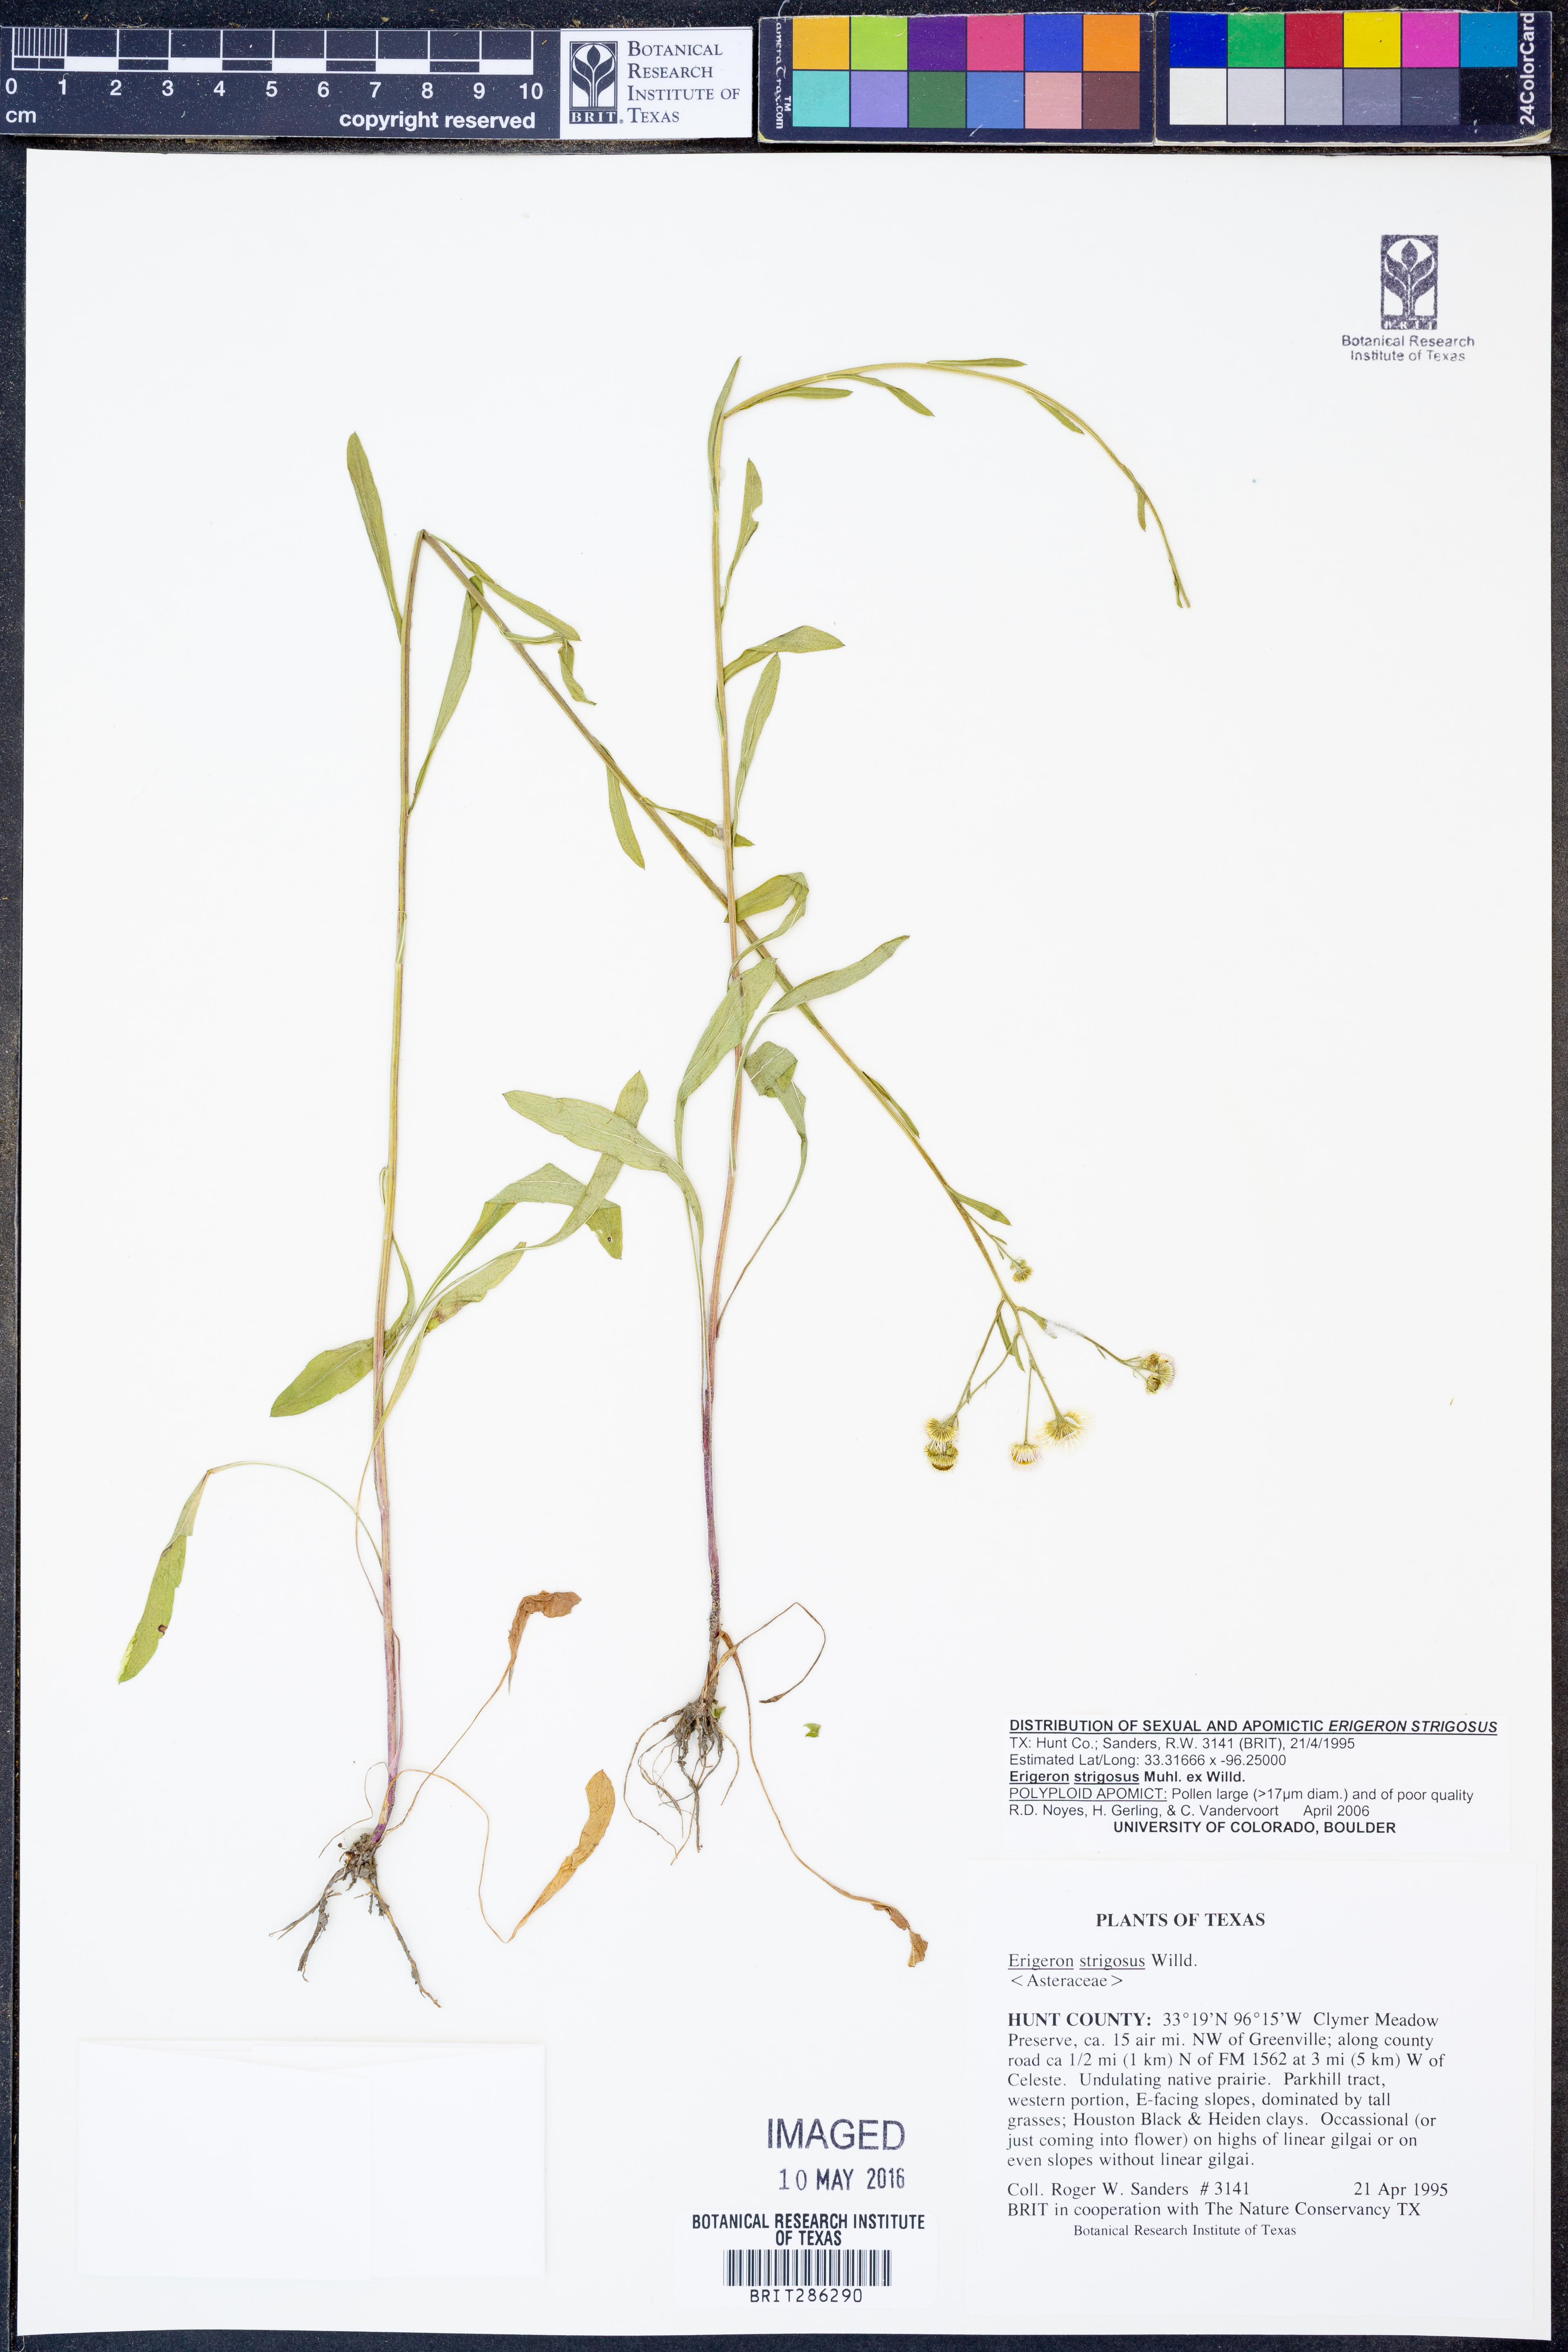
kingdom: Plantae
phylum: Tracheophyta
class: Magnoliopsida
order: Asterales
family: Asteraceae
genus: Erigeron
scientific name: Erigeron strigosus
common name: Common eastern fleabane
